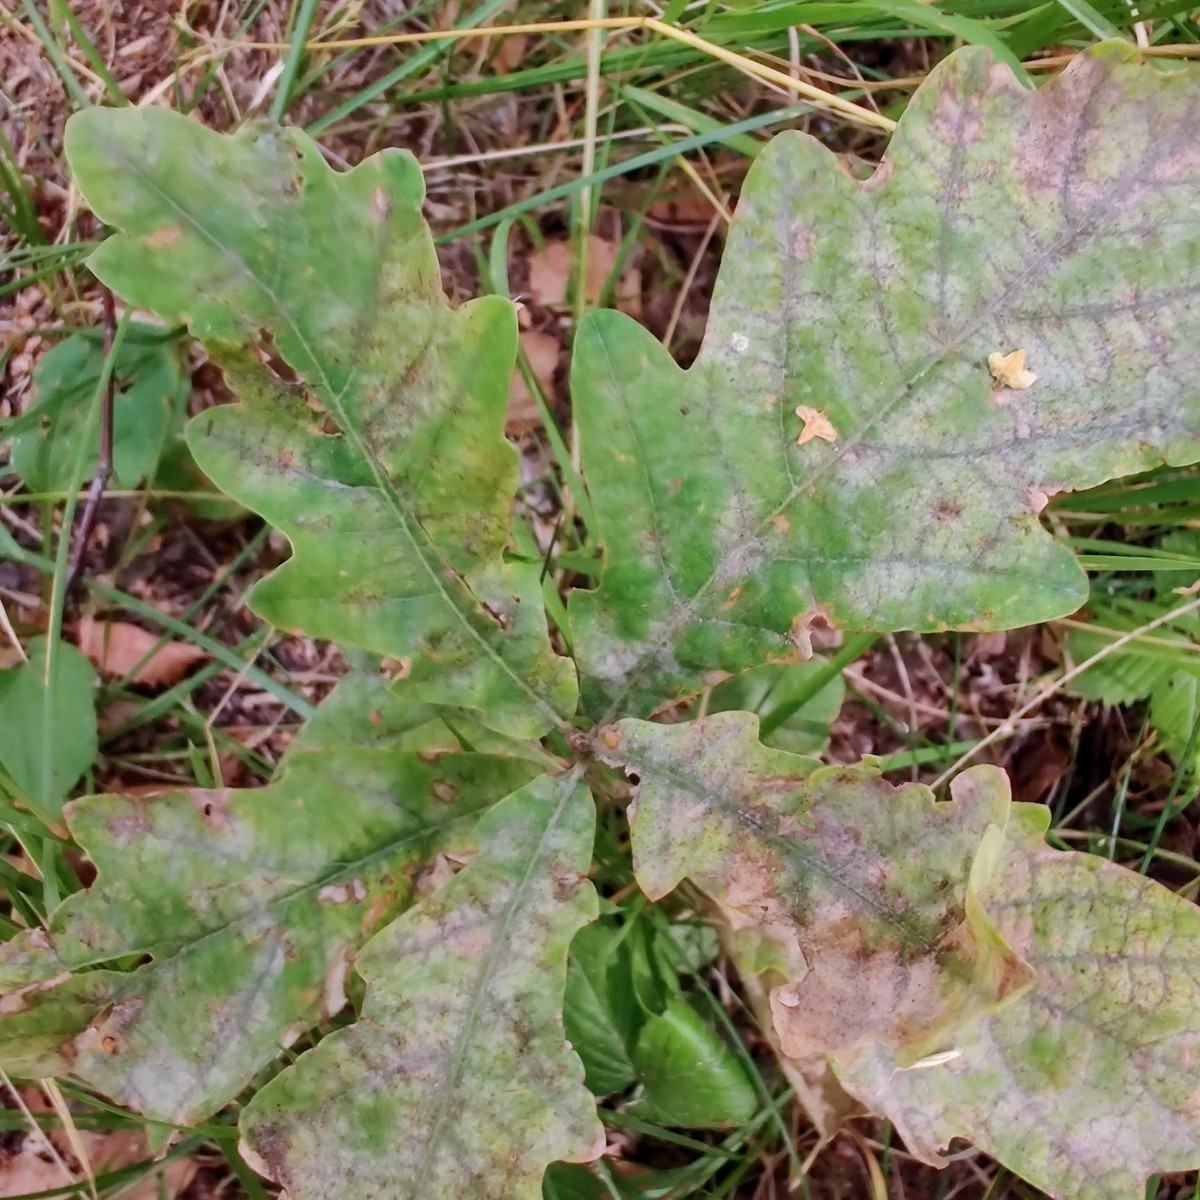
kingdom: Fungi
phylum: Ascomycota
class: Leotiomycetes
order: Helotiales
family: Erysiphaceae
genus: Erysiphe
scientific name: Erysiphe alphitoides
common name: ege-meldug
